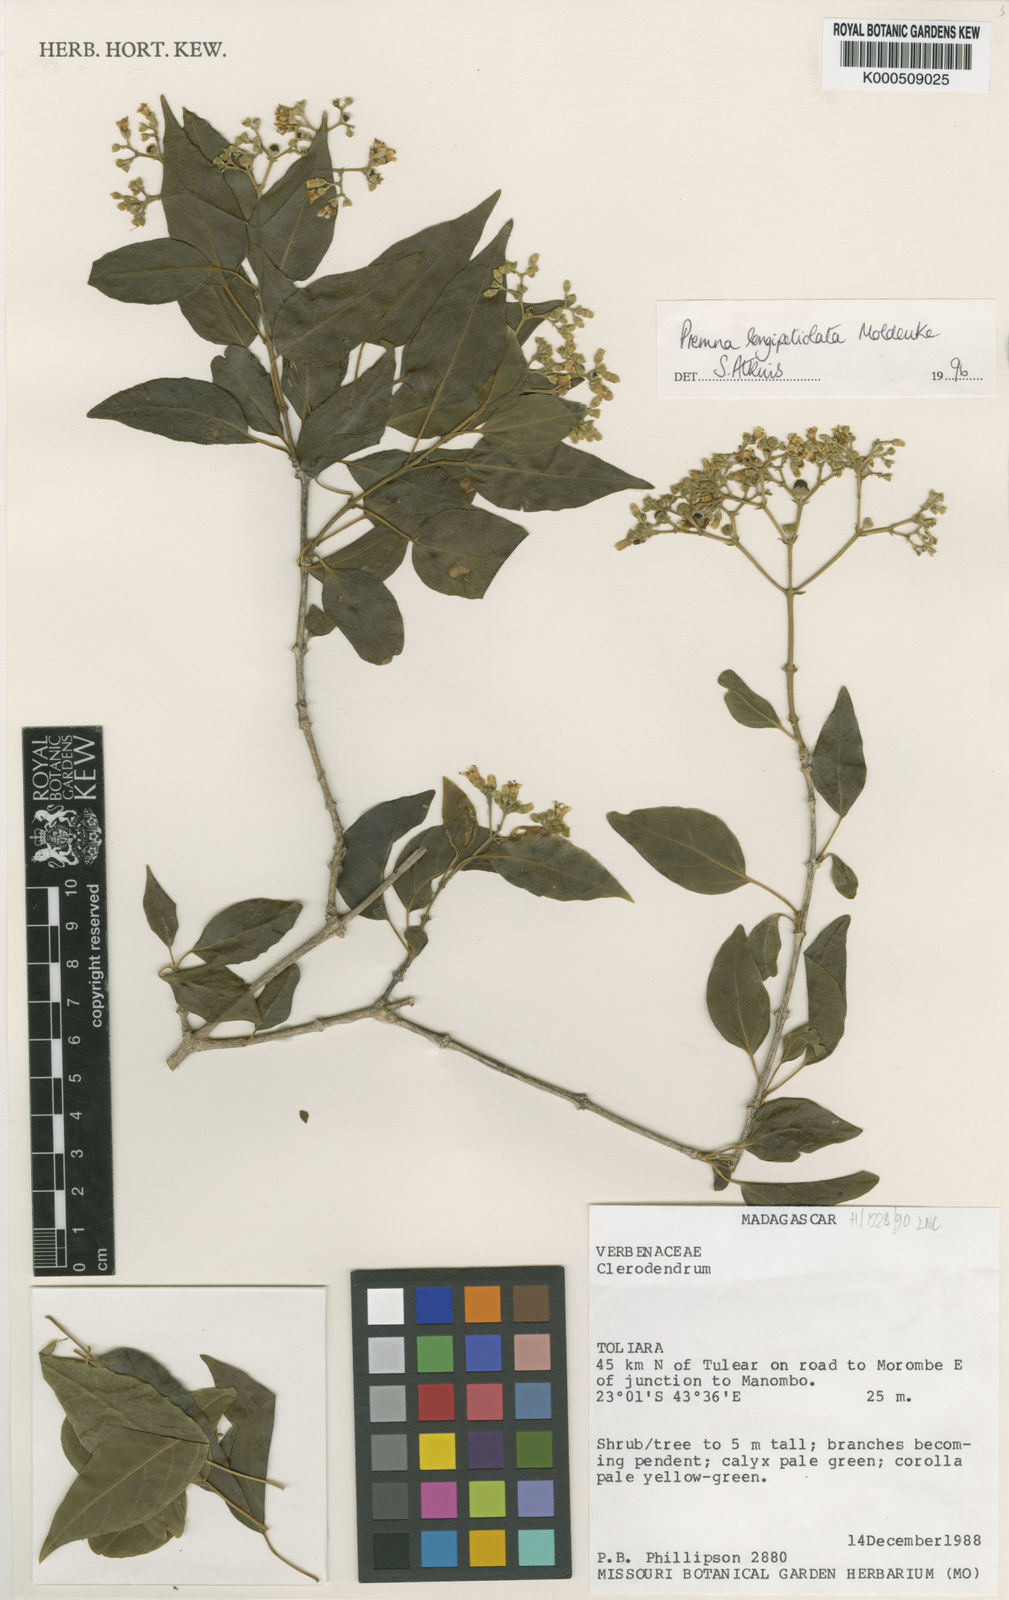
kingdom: Plantae
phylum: Tracheophyta
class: Magnoliopsida
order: Lamiales
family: Lamiaceae
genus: Premna
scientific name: Premna longipetiolata
